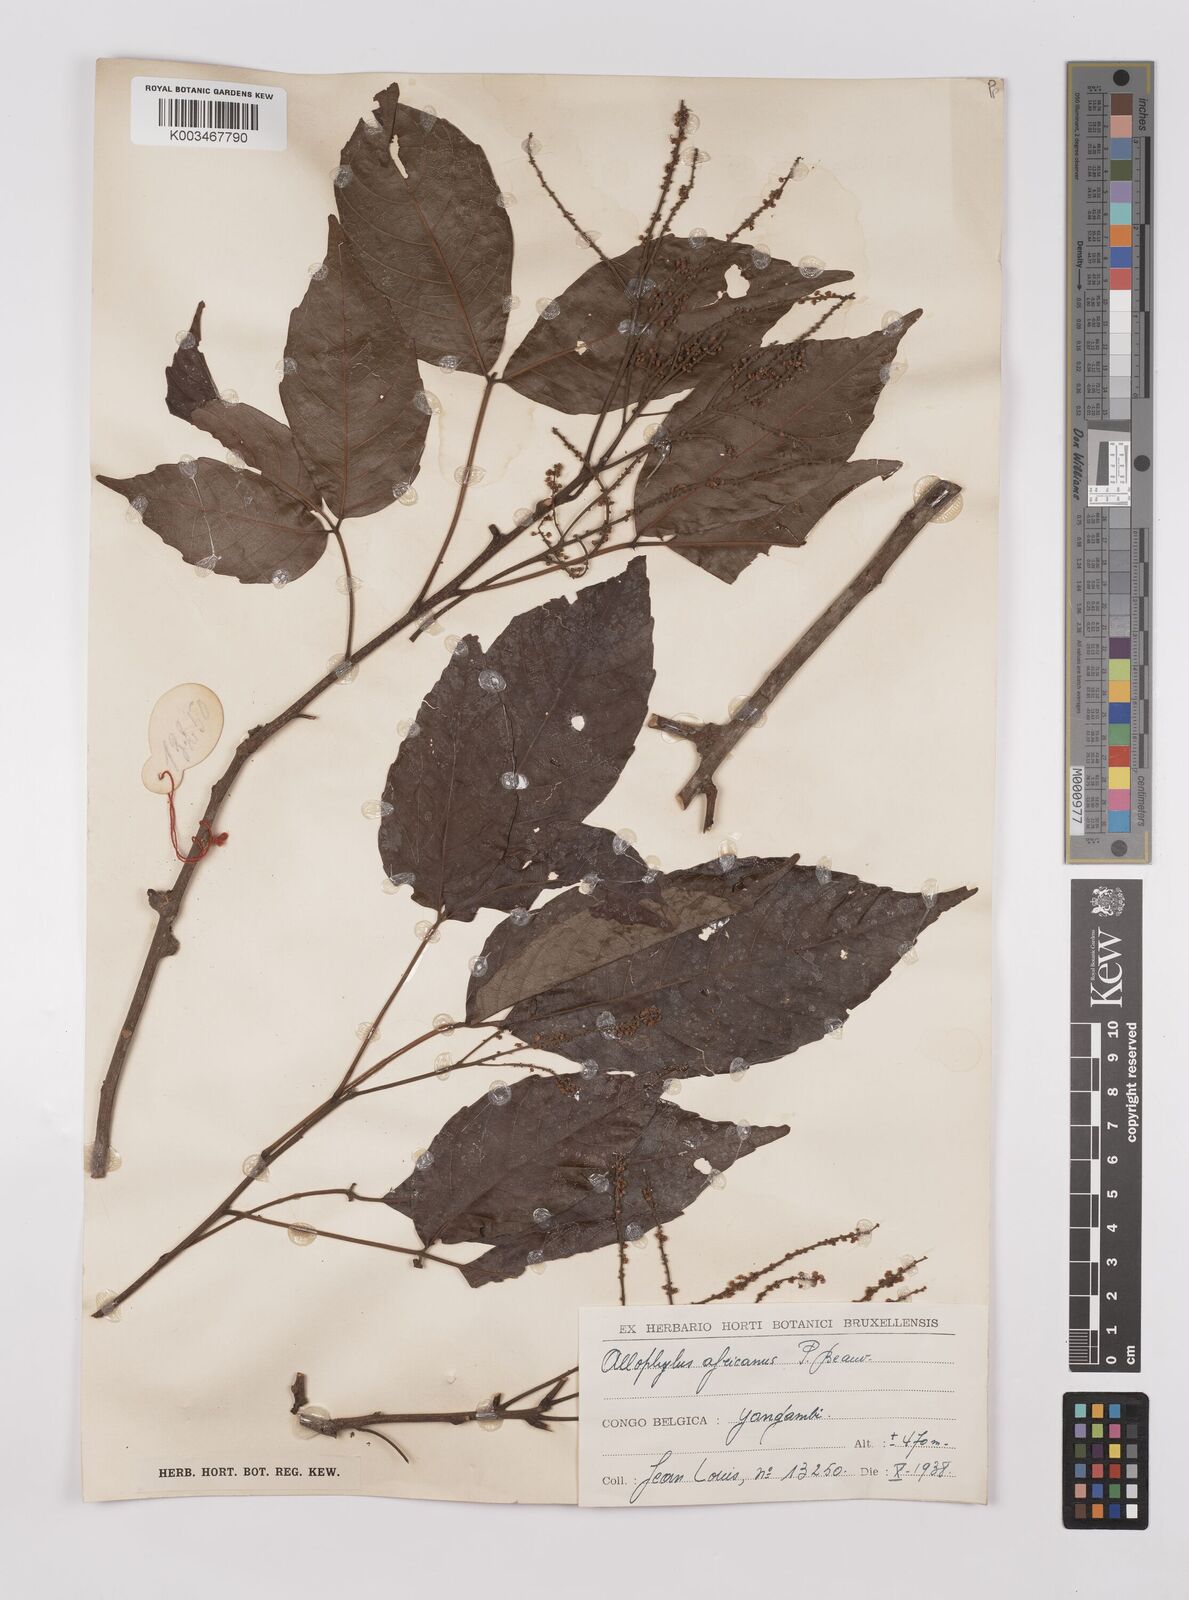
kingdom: Plantae
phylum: Tracheophyta
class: Magnoliopsida
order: Sapindales
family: Sapindaceae
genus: Allophylus
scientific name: Allophylus africanus
